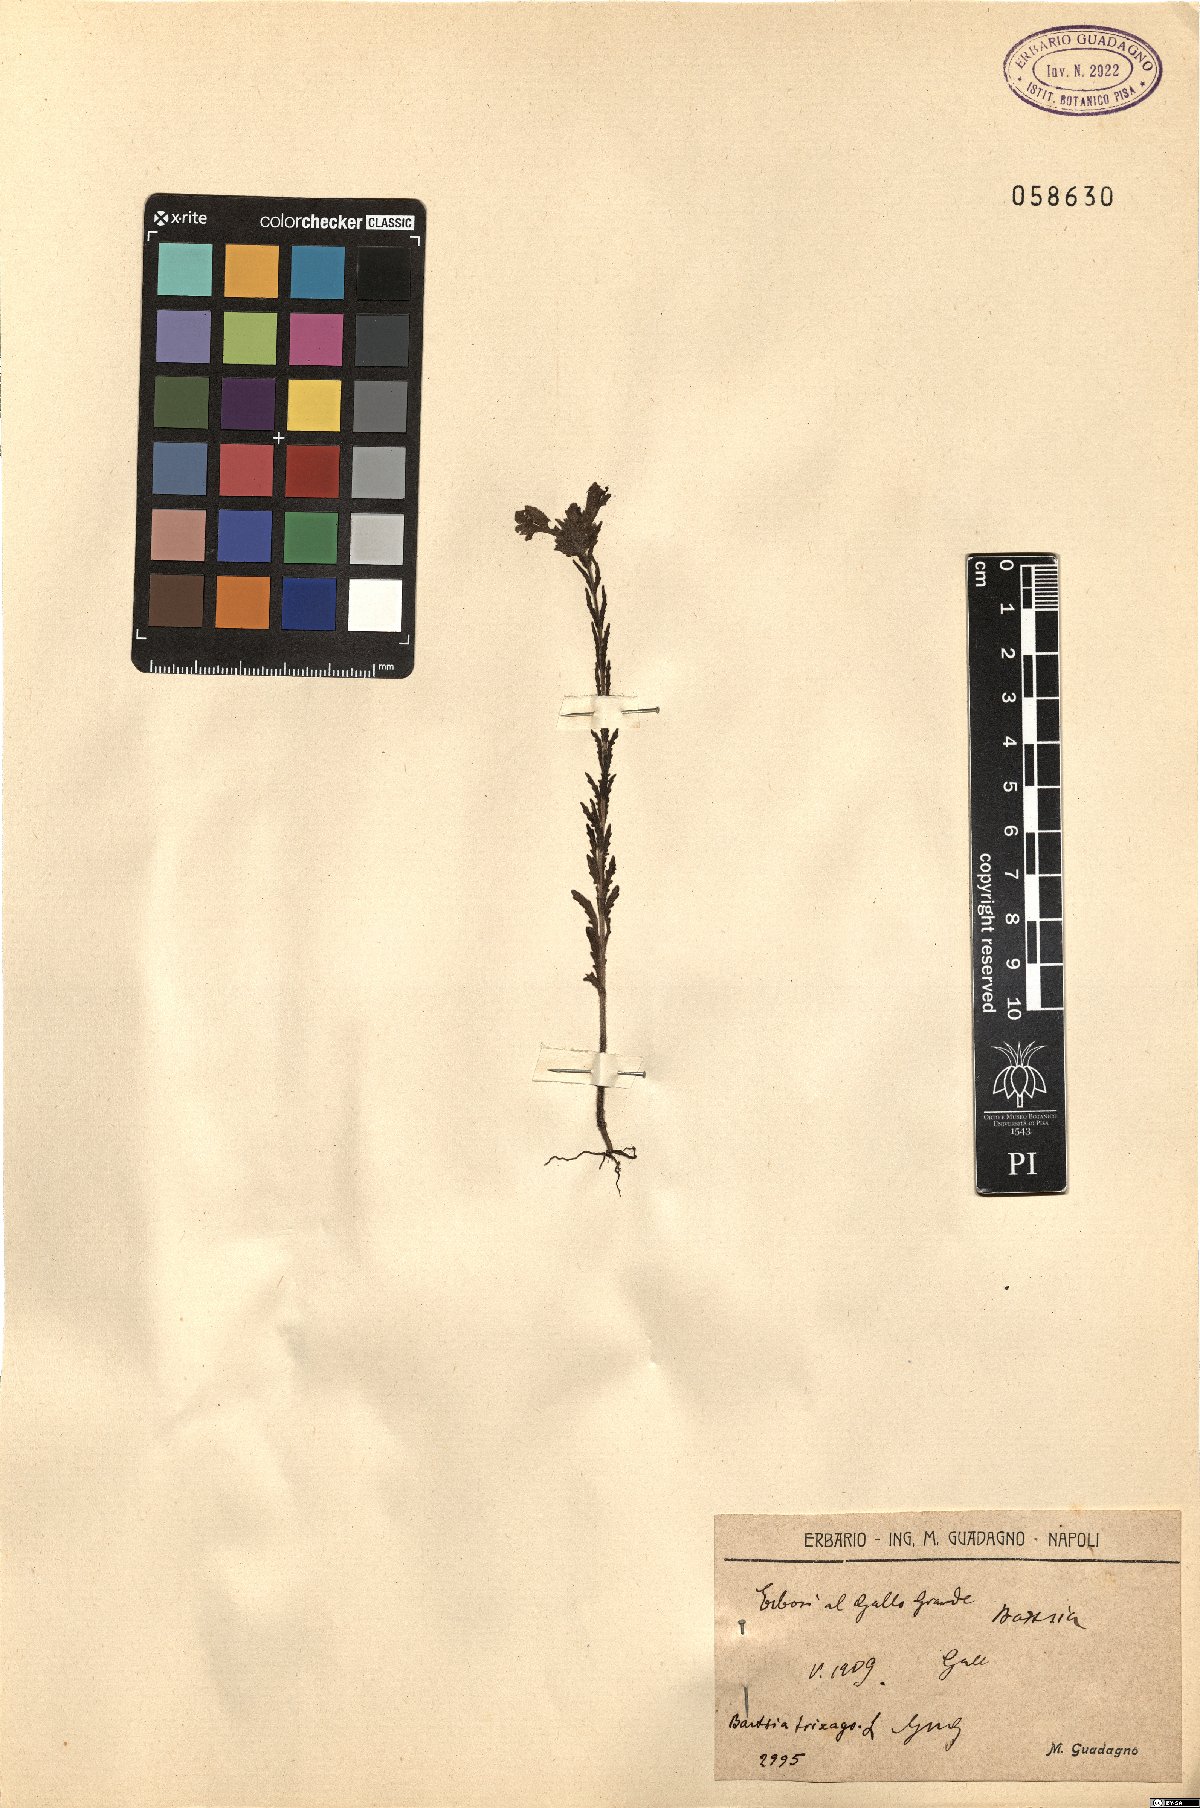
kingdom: Plantae
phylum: Tracheophyta
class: Magnoliopsida
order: Lamiales
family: Orobanchaceae
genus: Bellardia
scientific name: Bellardia trixago
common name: Mediterranean lineseed
